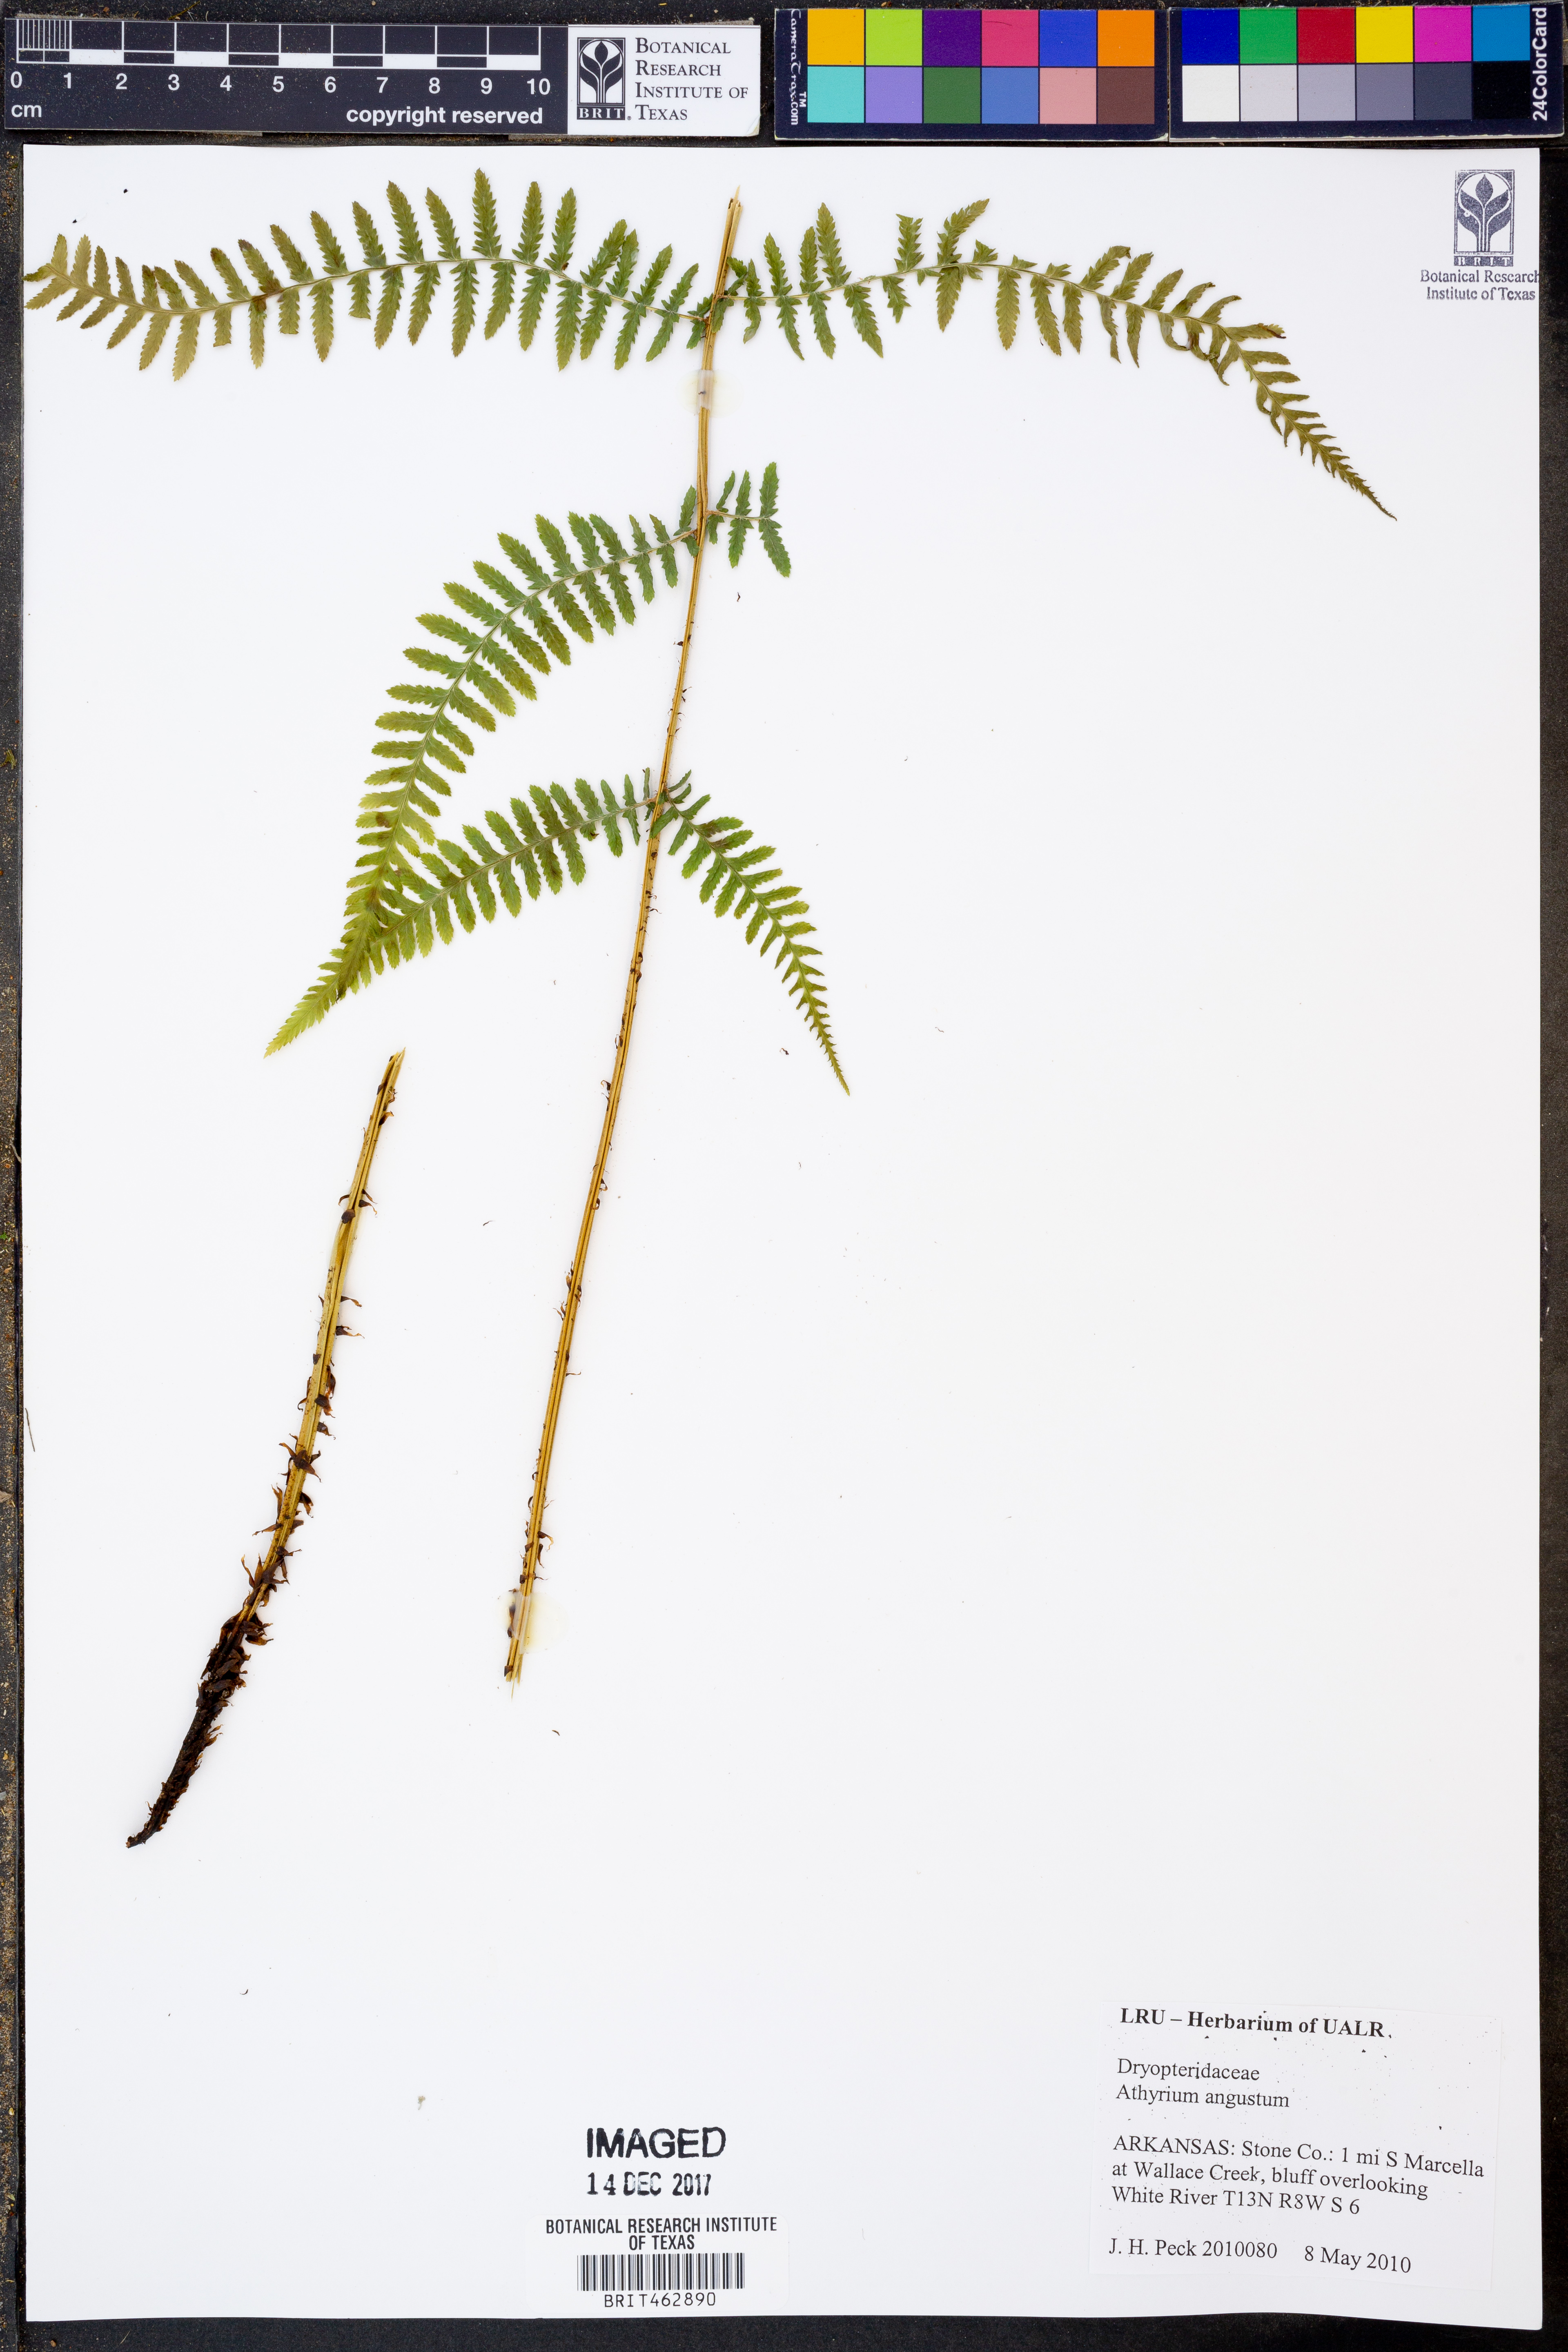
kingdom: Plantae
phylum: Tracheophyta
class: Polypodiopsida
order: Polypodiales
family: Athyriaceae
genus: Athyrium
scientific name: Athyrium angustum
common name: Northern lady fern
